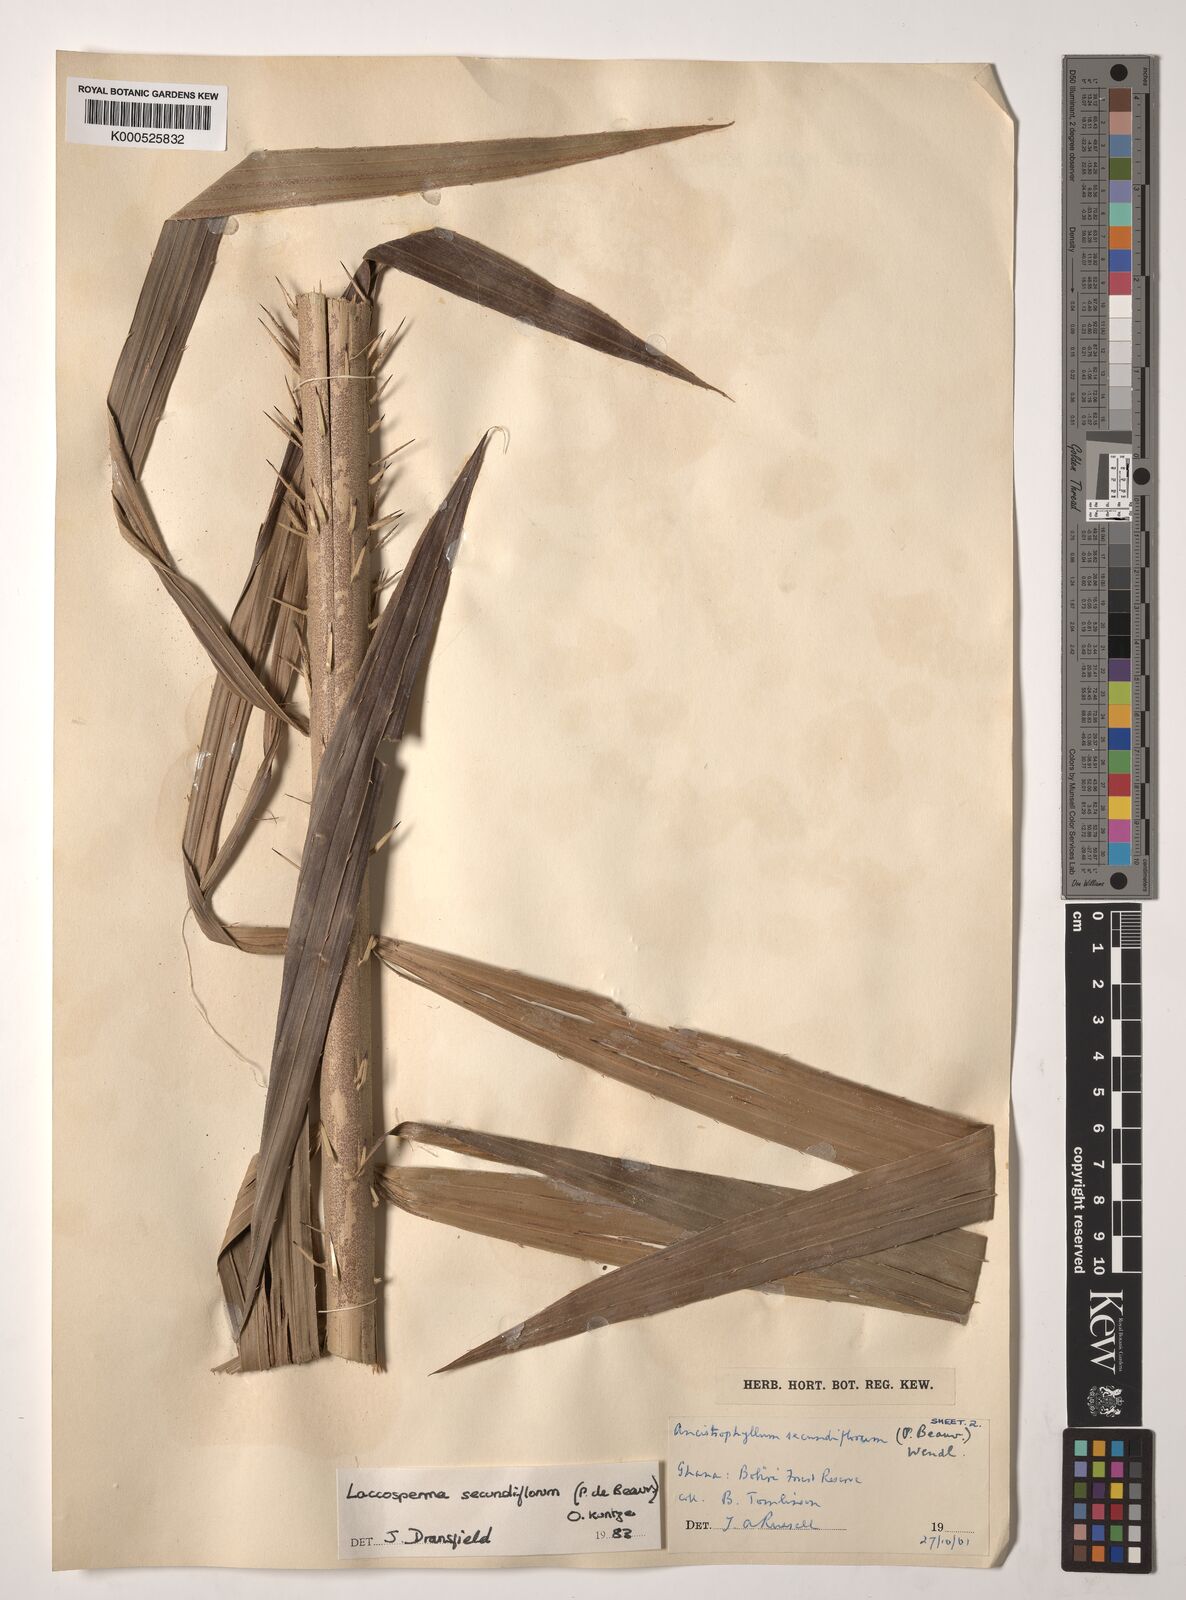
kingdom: Plantae
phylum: Tracheophyta
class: Liliopsida
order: Arecales
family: Arecaceae
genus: Eremospatha
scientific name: Eremospatha
